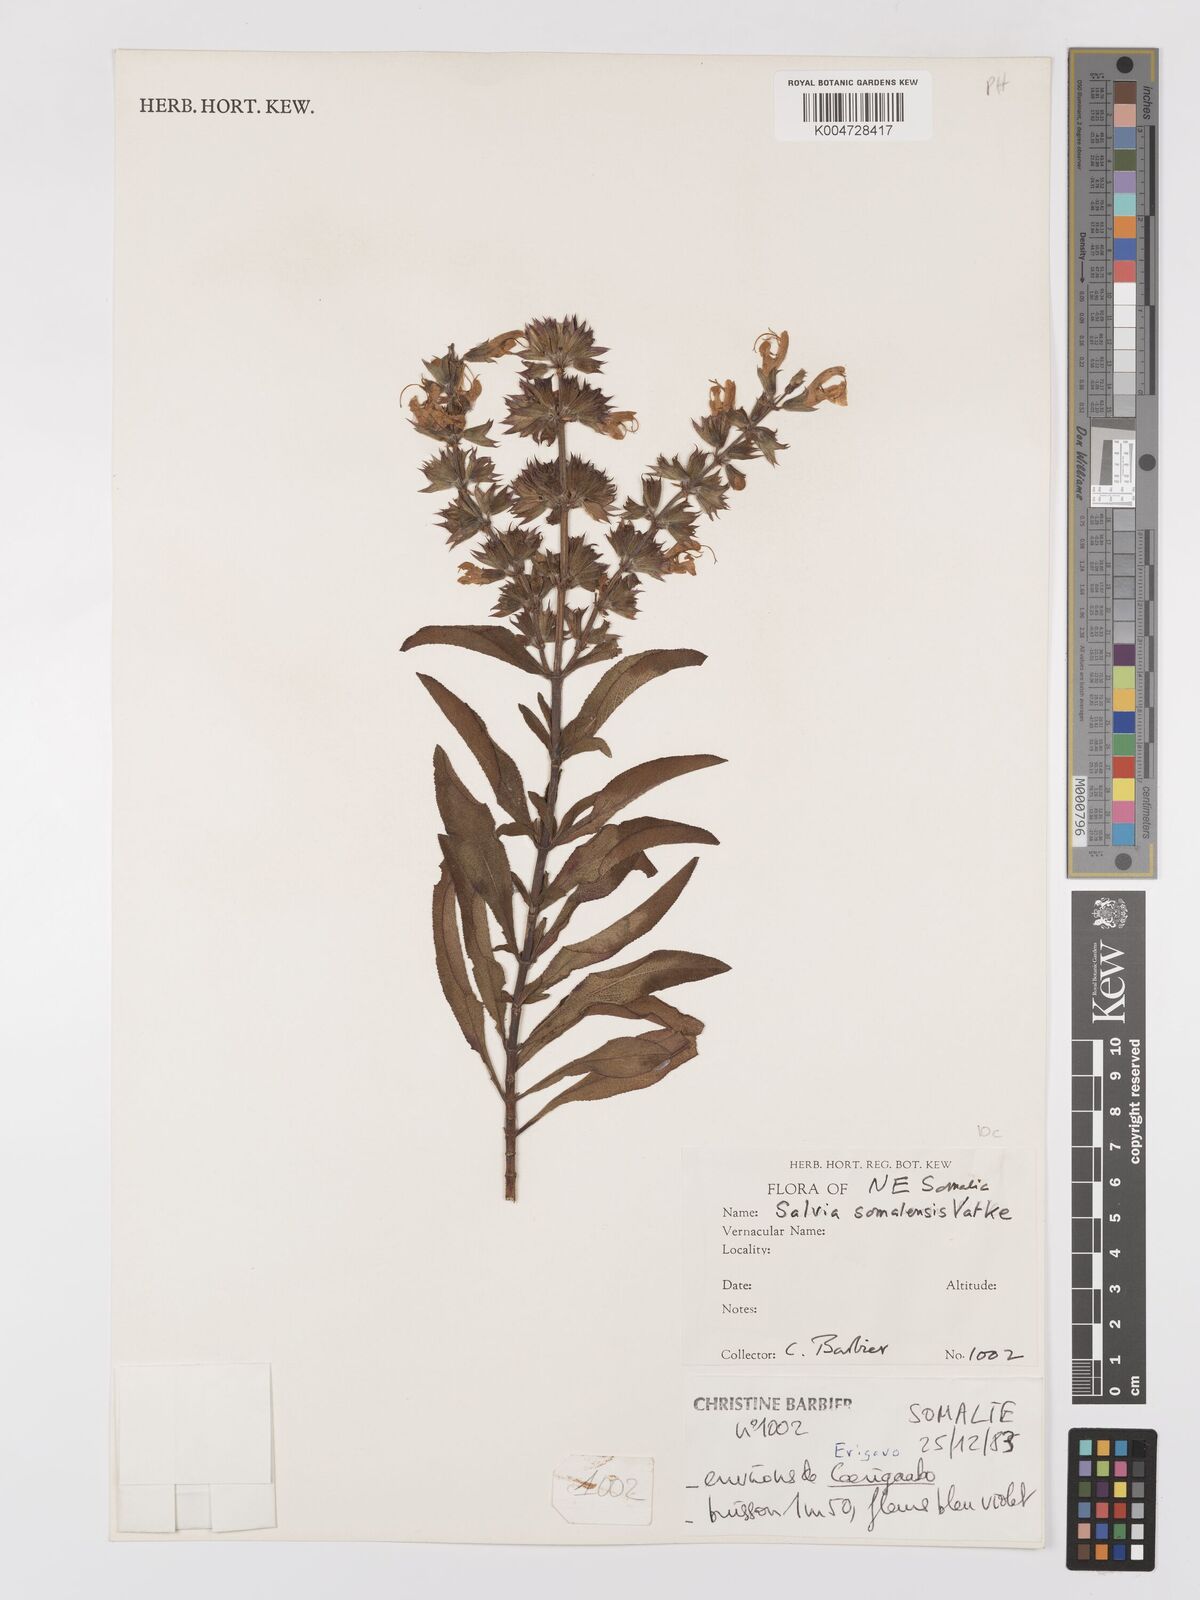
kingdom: Plantae
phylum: Tracheophyta
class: Magnoliopsida
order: Lamiales
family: Lamiaceae
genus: Salvia
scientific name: Salvia somalensis
